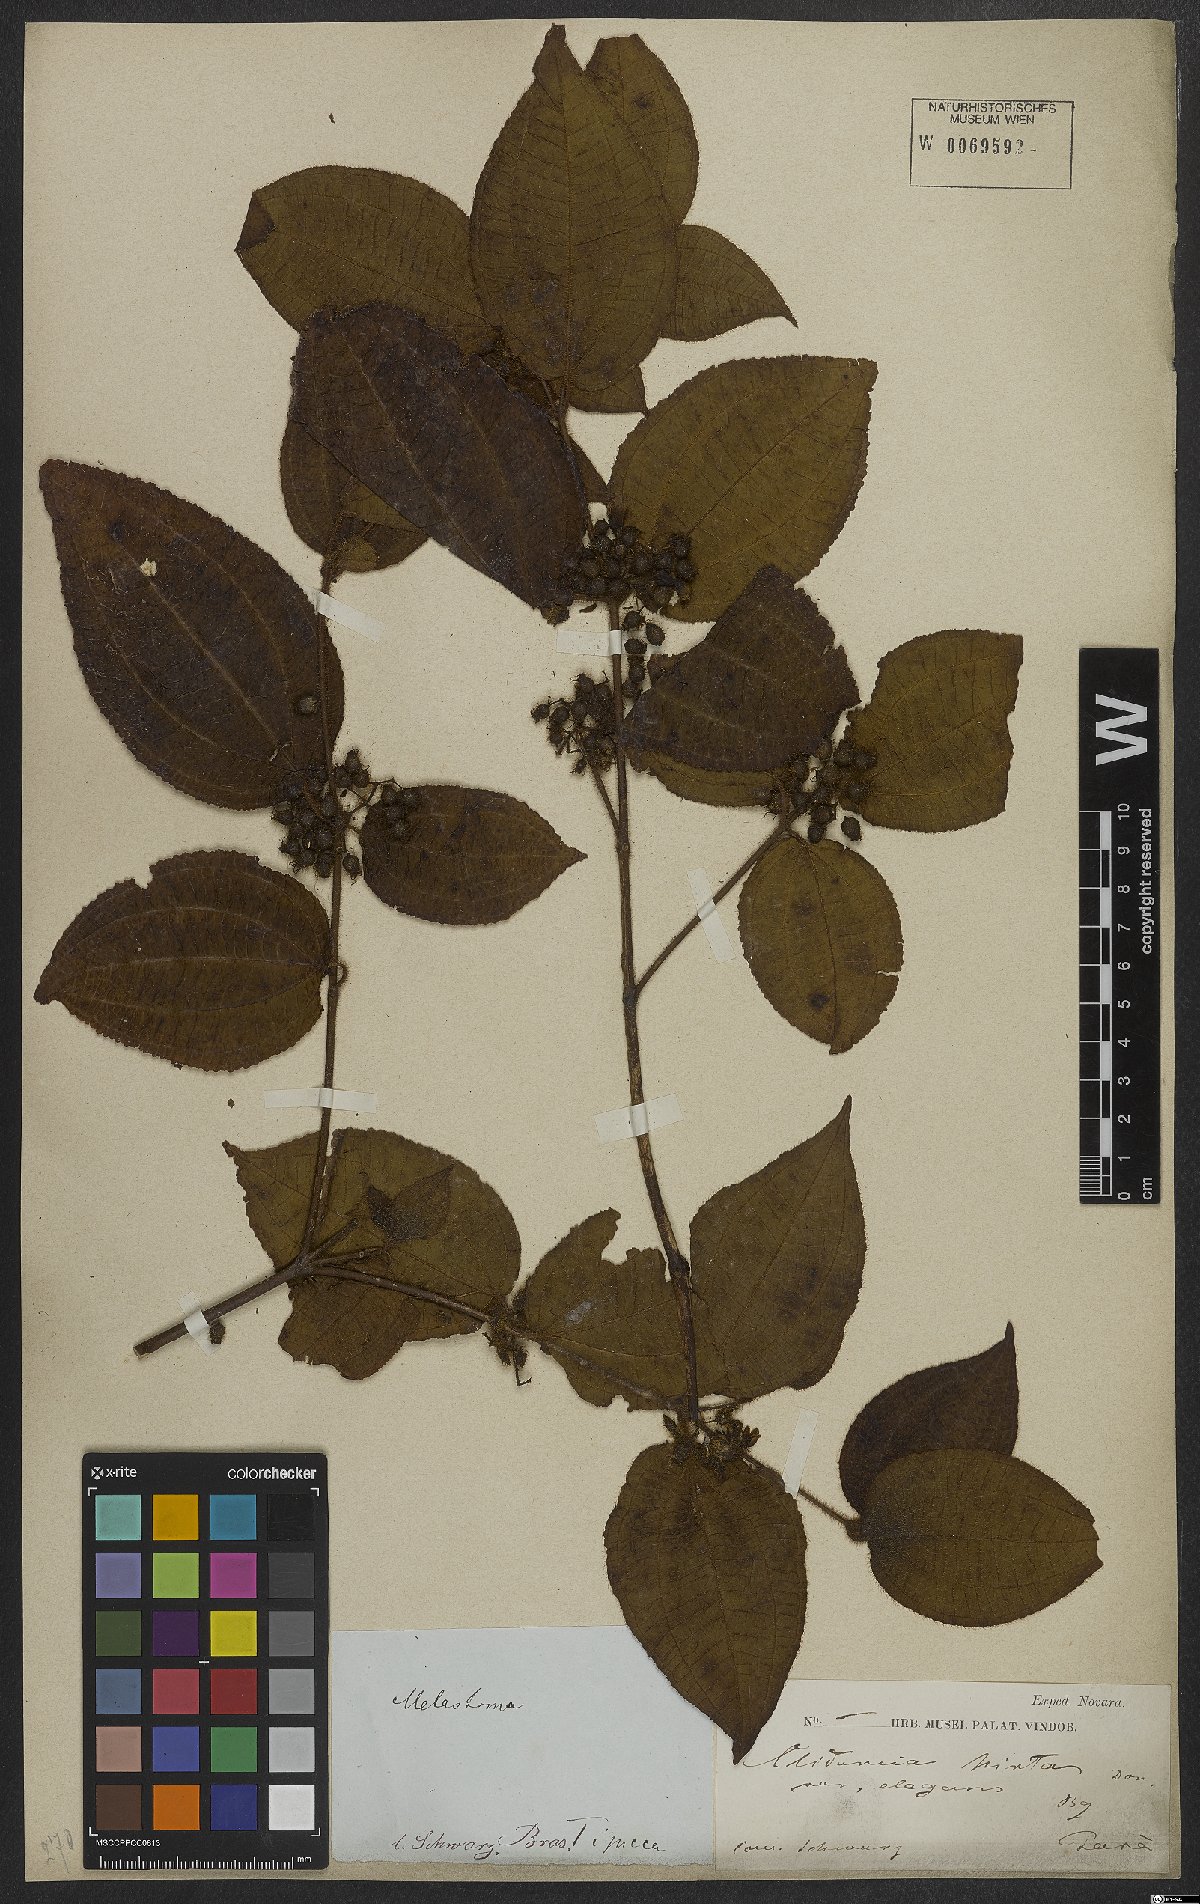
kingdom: Plantae
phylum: Tracheophyta
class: Magnoliopsida
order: Myrtales
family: Melastomataceae
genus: Miconia
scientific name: Miconia crenata
